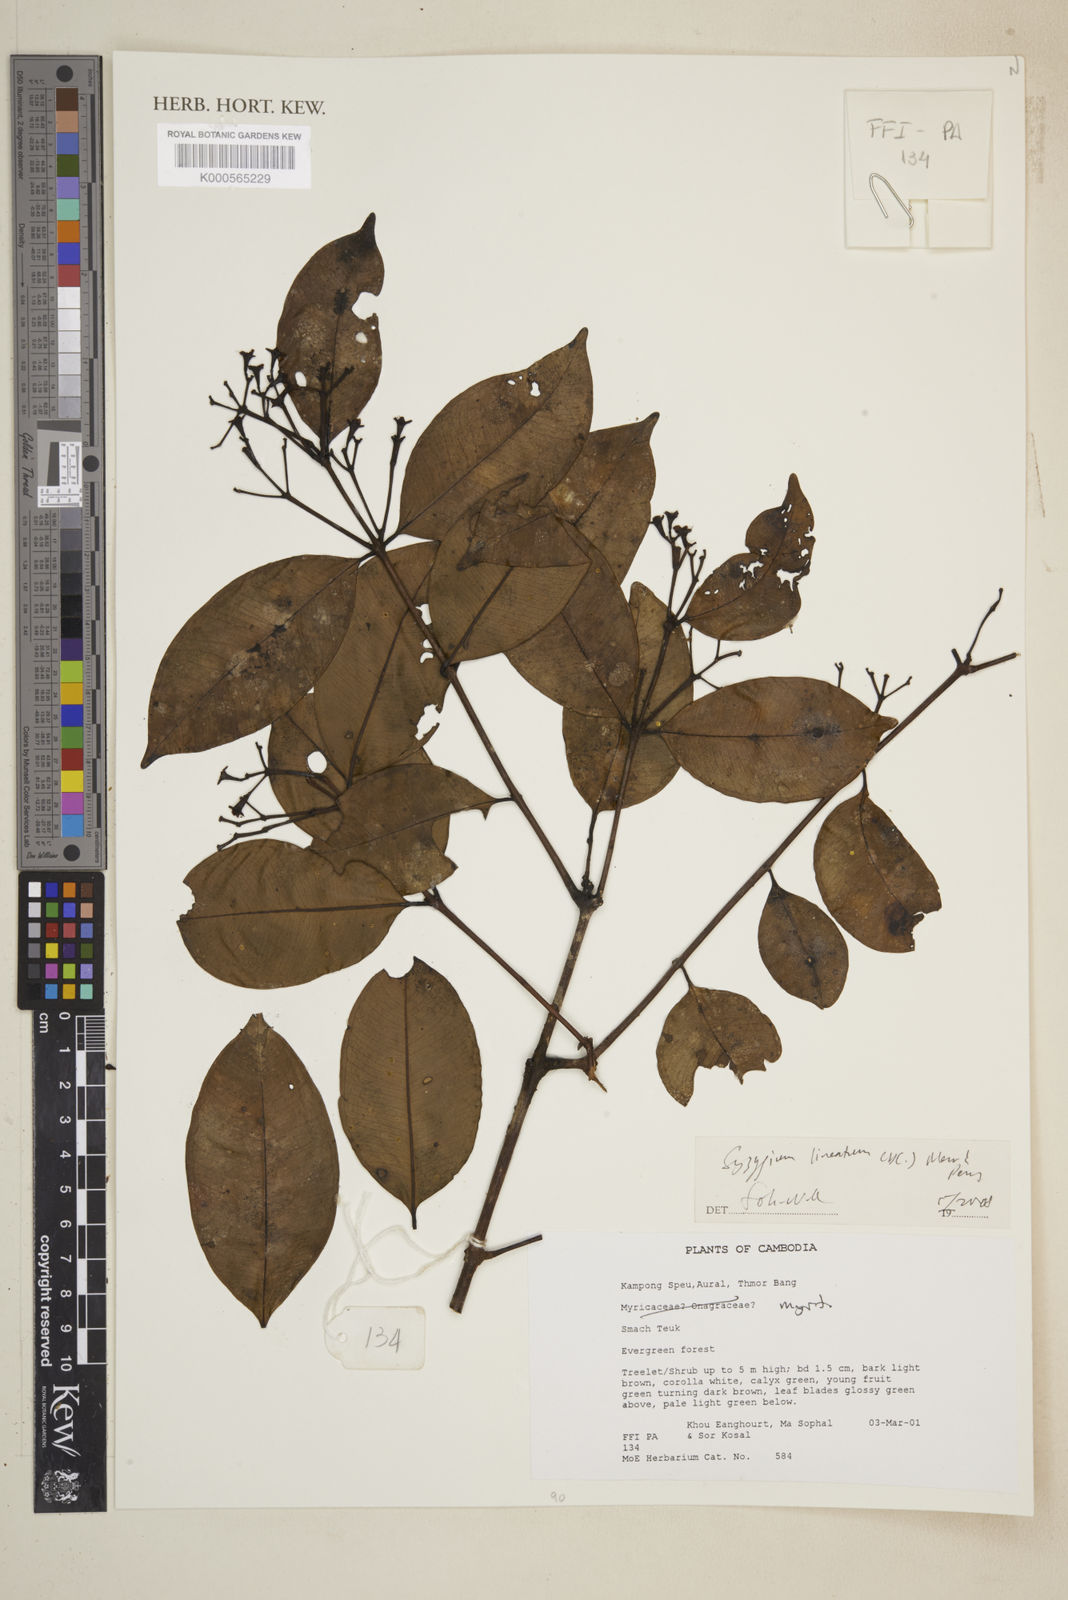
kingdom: Plantae
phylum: Tracheophyta
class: Magnoliopsida
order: Myrtales
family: Myrtaceae
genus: Syzygium
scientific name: Syzygium lineatum
